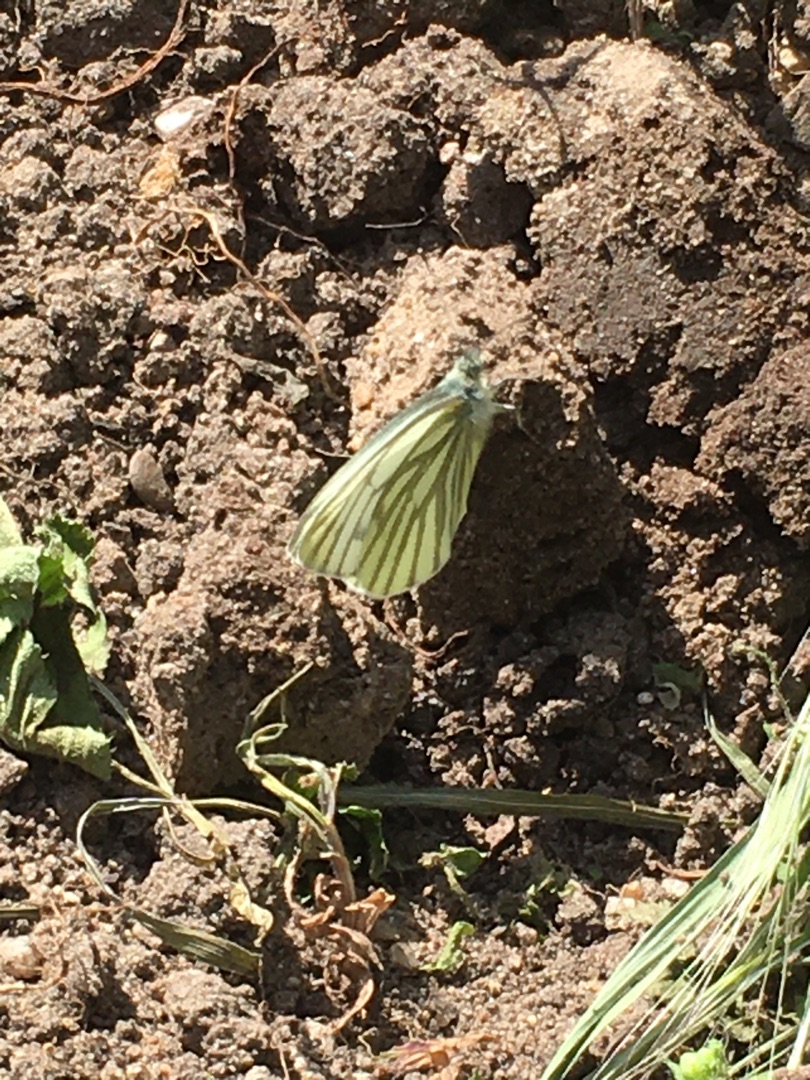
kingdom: Animalia
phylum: Arthropoda
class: Insecta
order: Lepidoptera
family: Pieridae
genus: Pieris
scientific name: Pieris napi
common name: Grønåret kålsommerfugl
